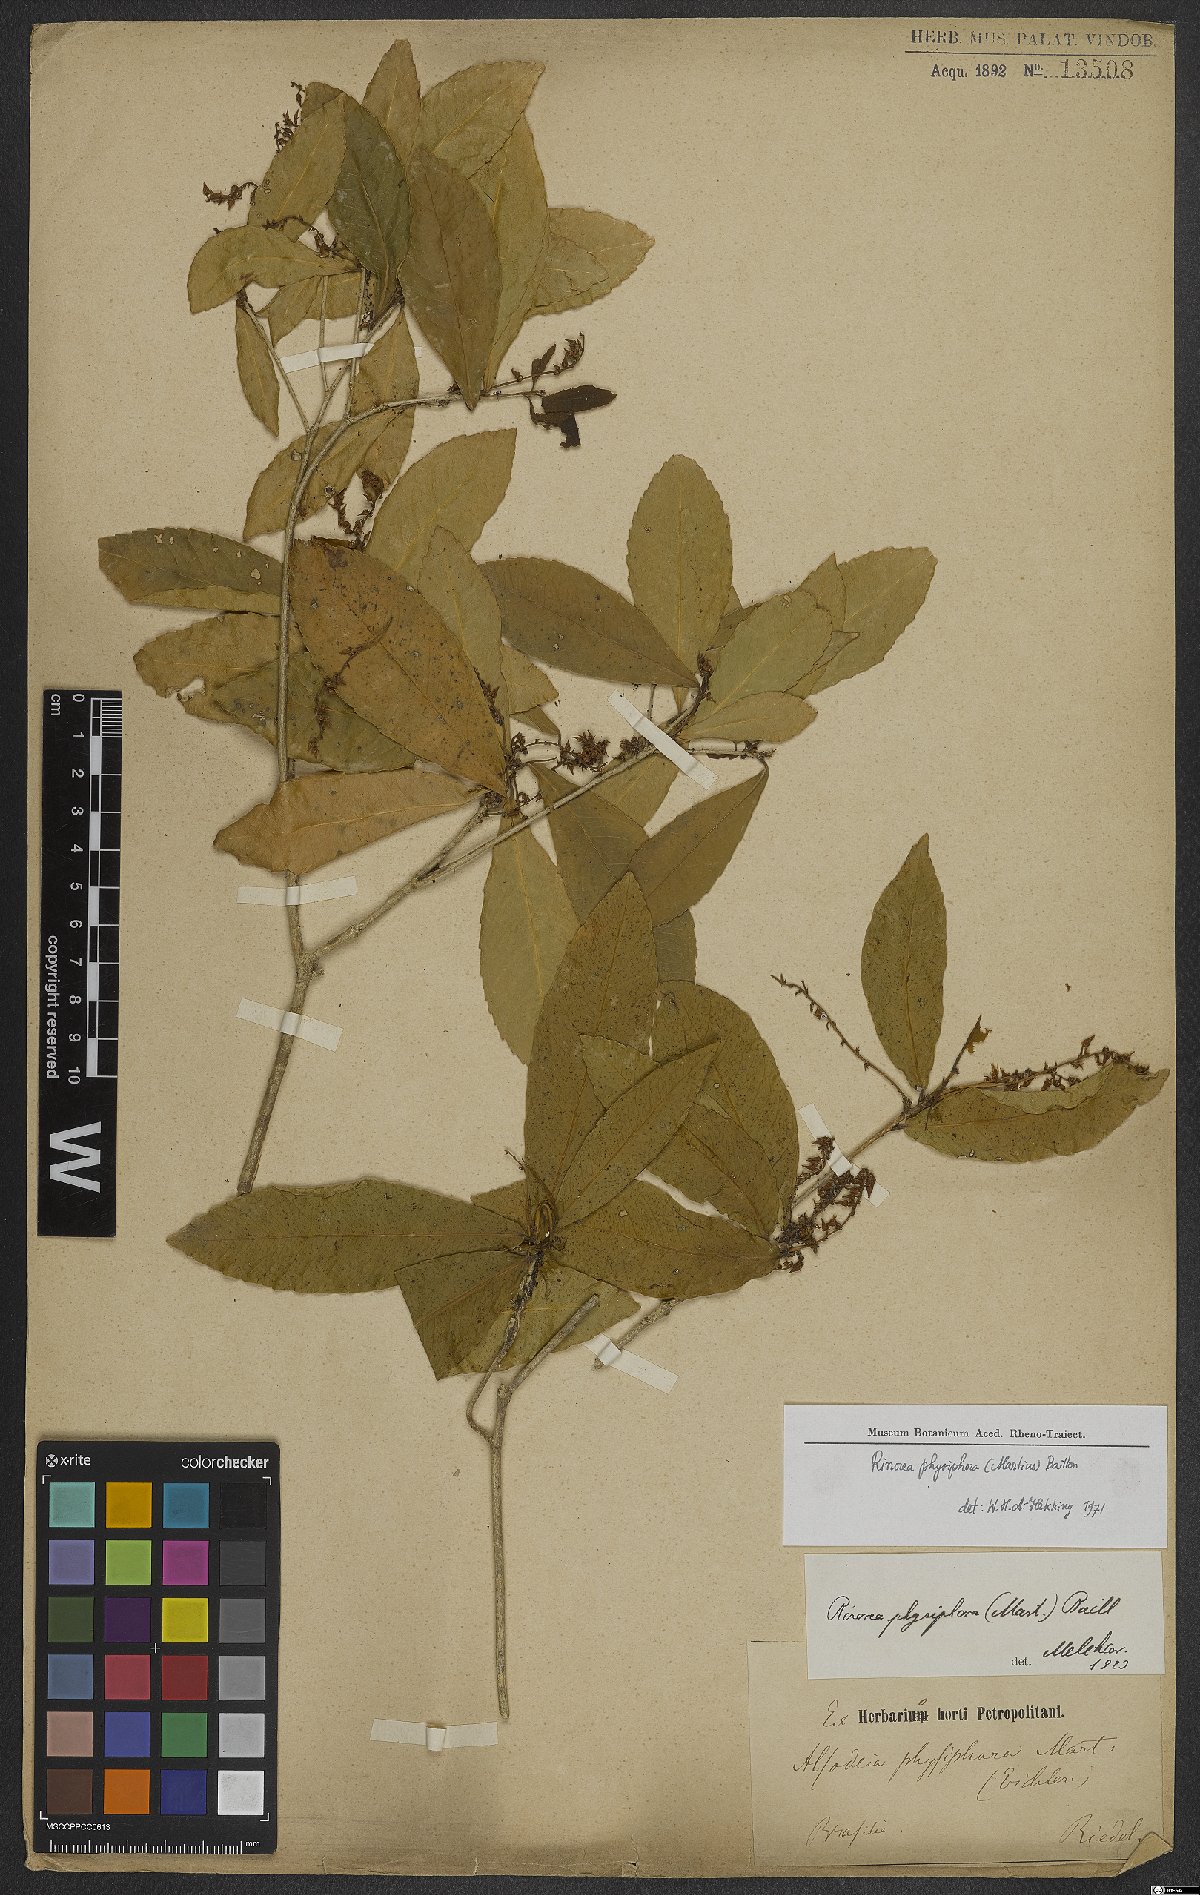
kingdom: Plantae
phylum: Tracheophyta
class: Magnoliopsida
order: Malpighiales
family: Violaceae
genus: Rinorea
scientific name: Rinorea laevigata
